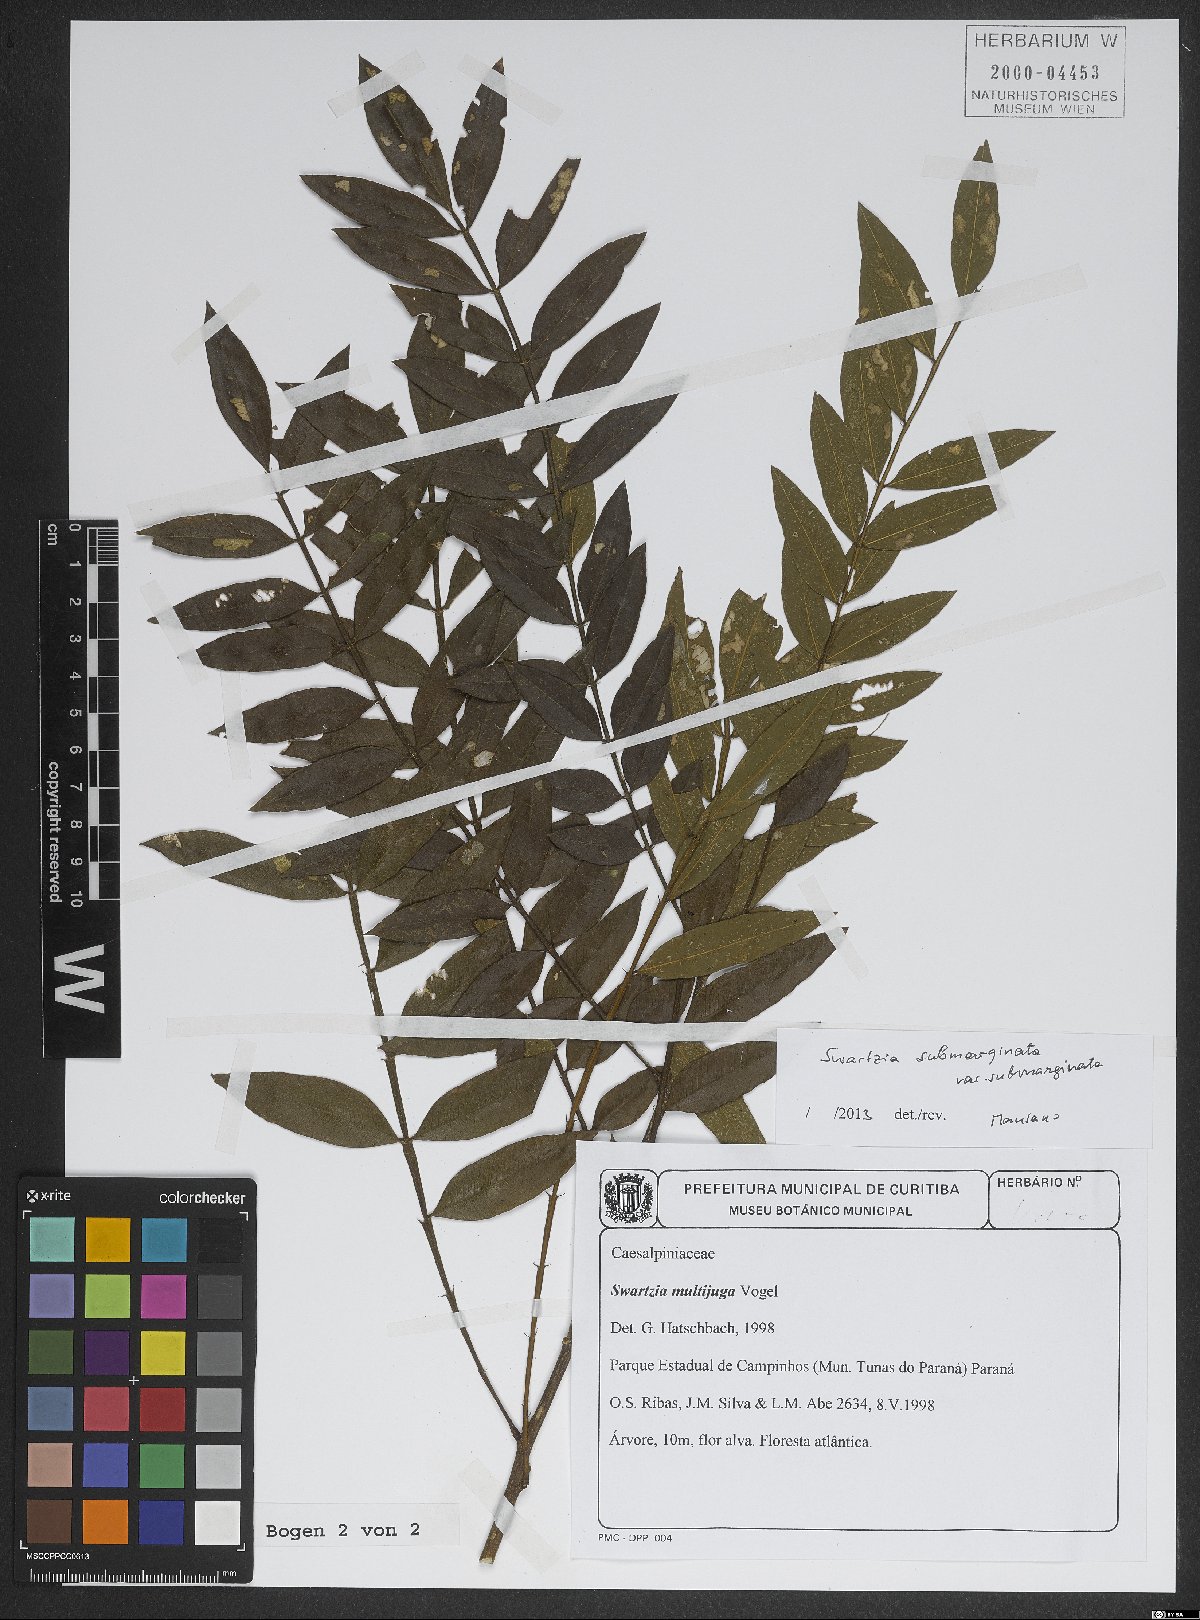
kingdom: Plantae
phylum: Tracheophyta
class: Magnoliopsida
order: Fabales
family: Fabaceae
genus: Swartzia
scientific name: Swartzia submarginata
